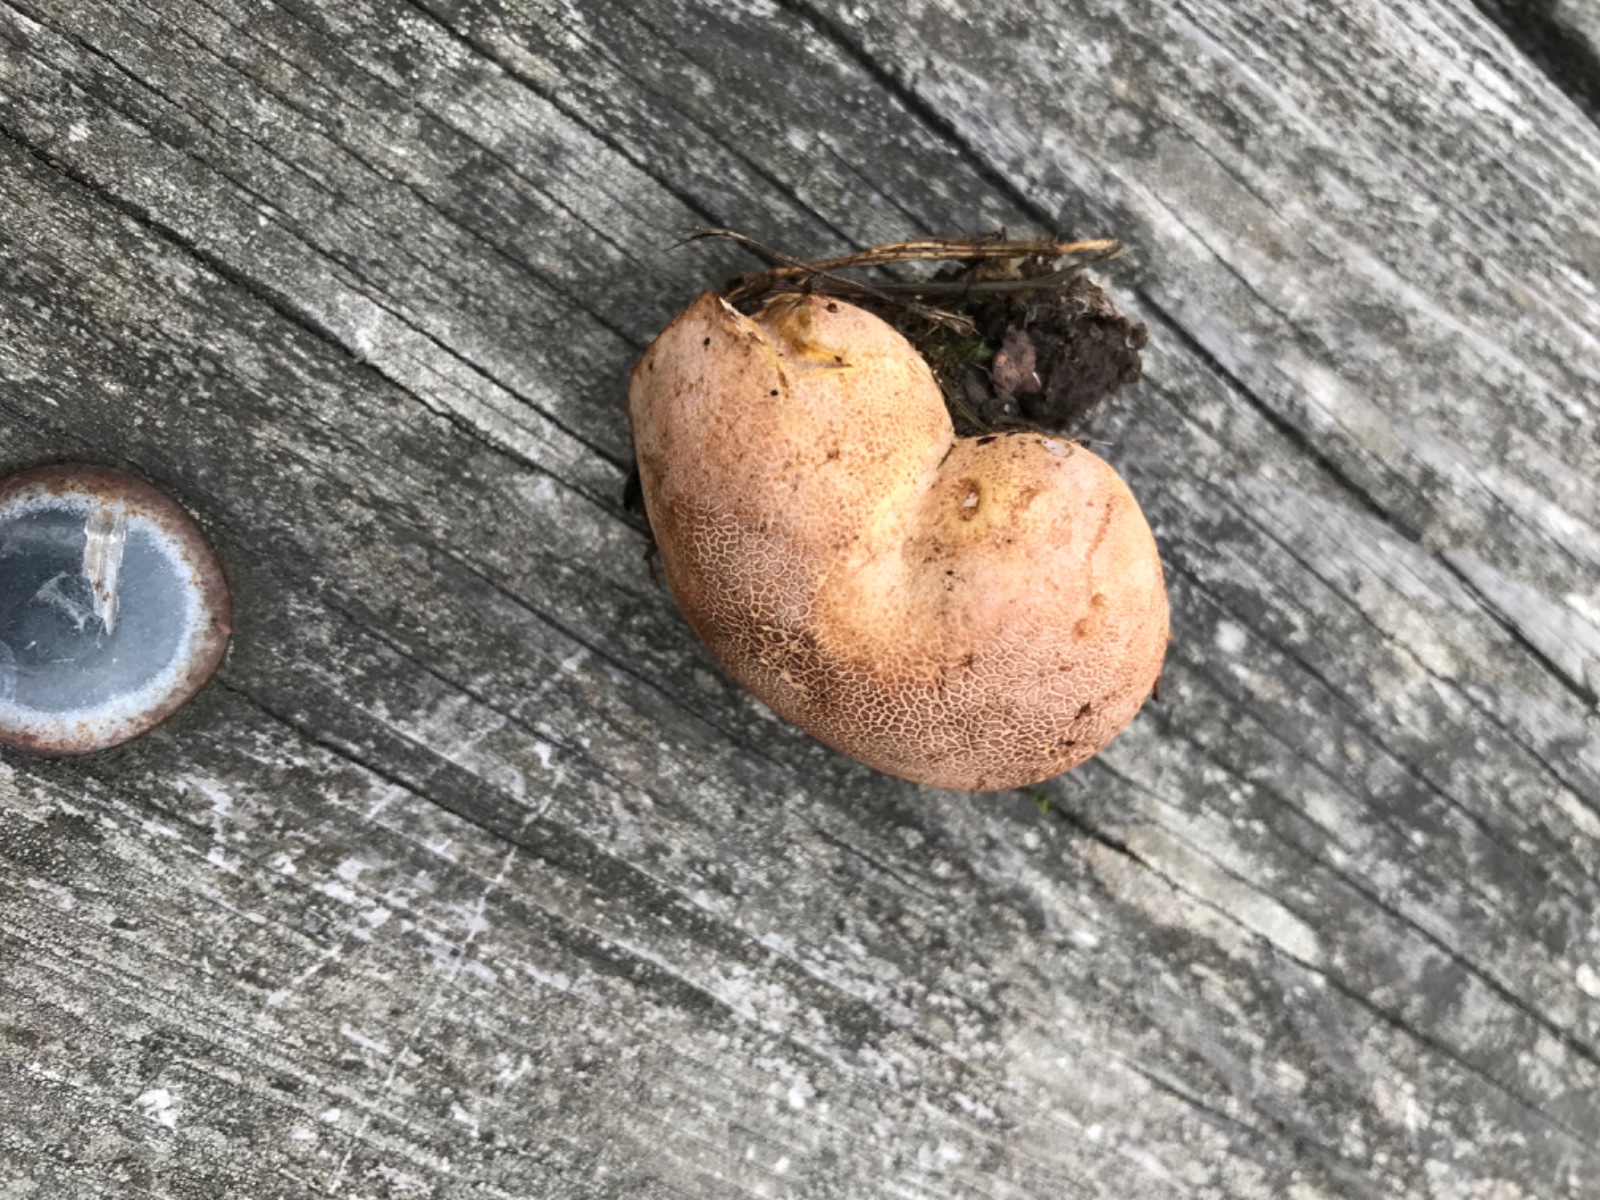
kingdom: Fungi
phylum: Basidiomycota
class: Agaricomycetes
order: Boletales
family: Sclerodermataceae
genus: Scleroderma
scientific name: Scleroderma citrinum
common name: almindelig bruskbold
